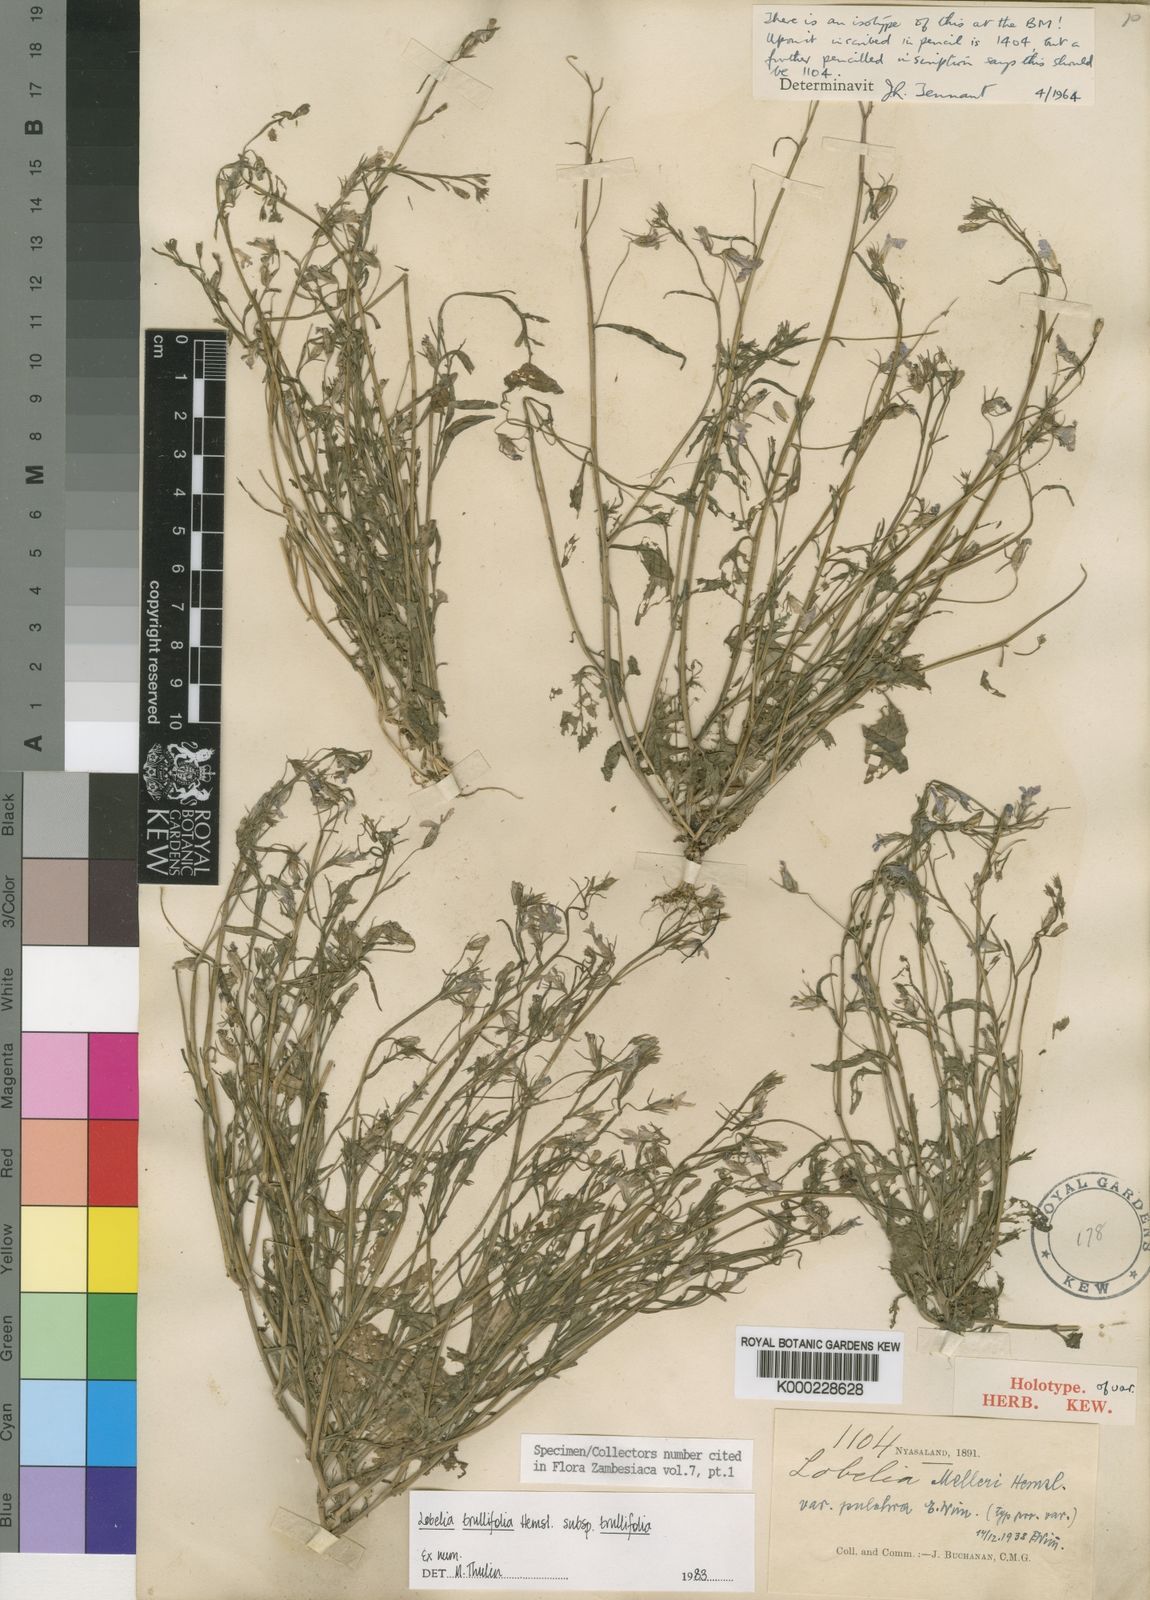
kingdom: Plantae
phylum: Tracheophyta
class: Magnoliopsida
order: Asterales
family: Campanulaceae
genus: Lobelia
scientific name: Lobelia trullifolia
